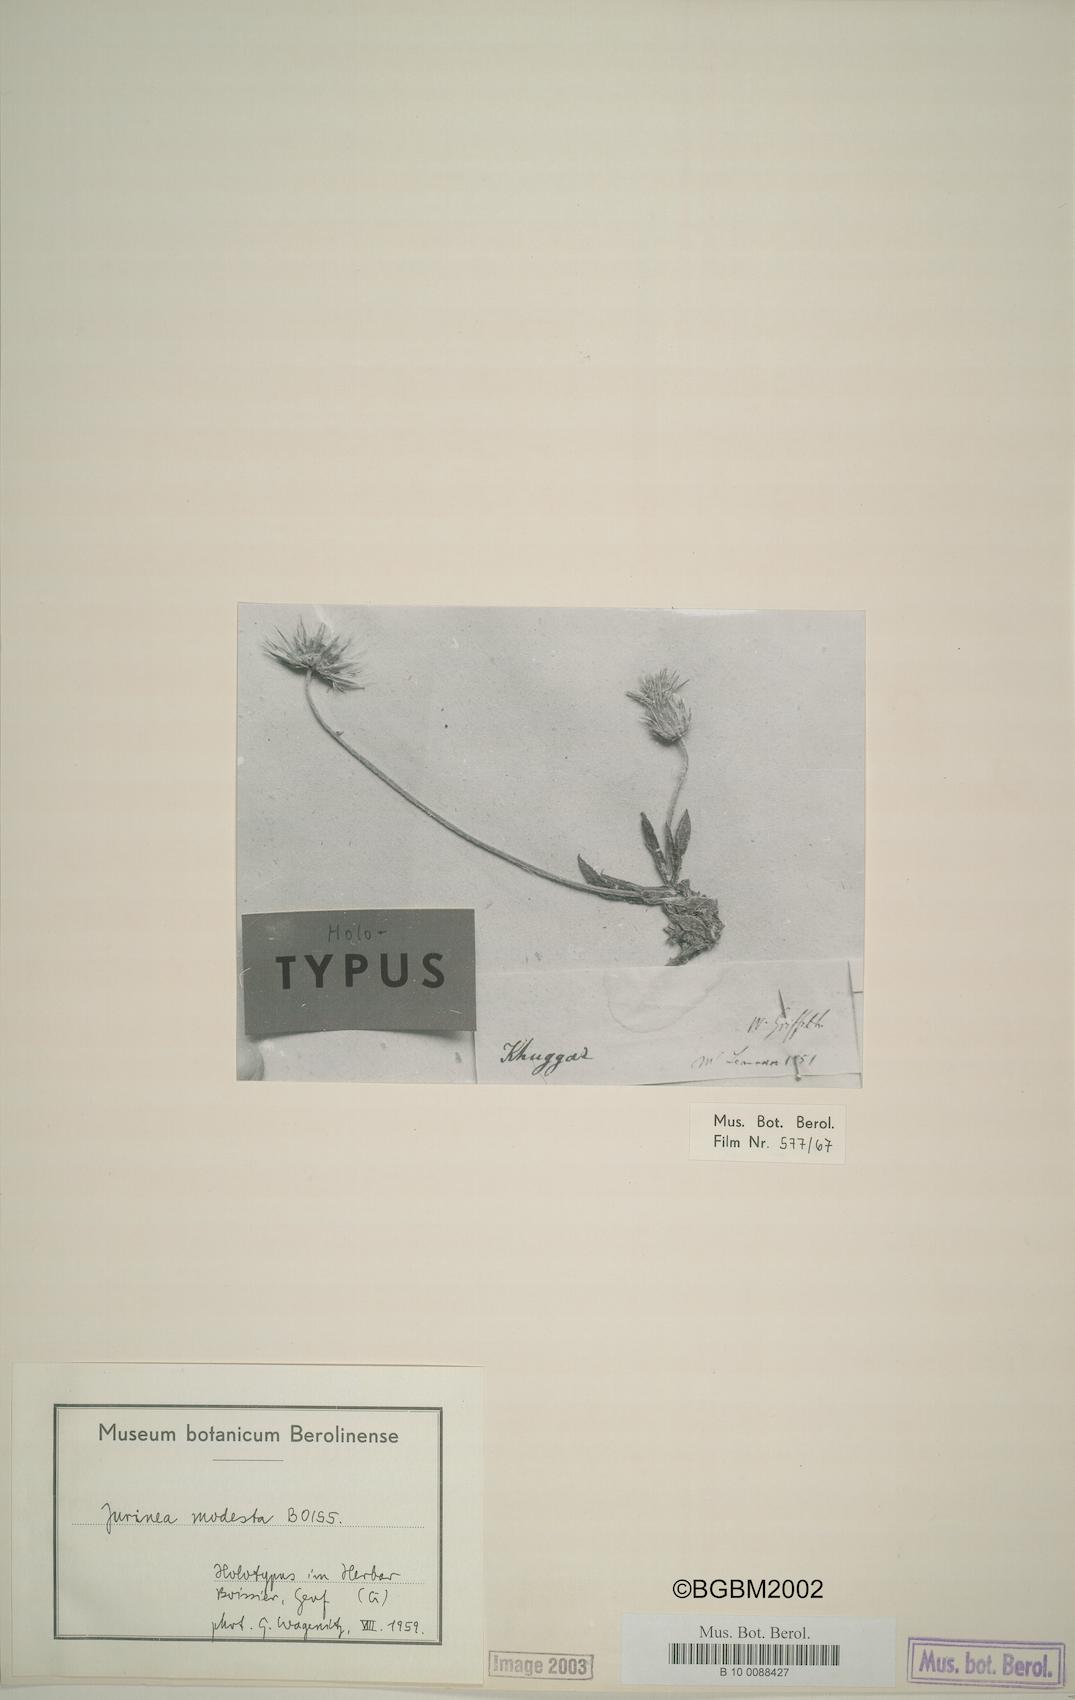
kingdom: Plantae
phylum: Tracheophyta
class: Magnoliopsida
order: Asterales
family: Asteraceae
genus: Jurinea
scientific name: Jurinea modesta
